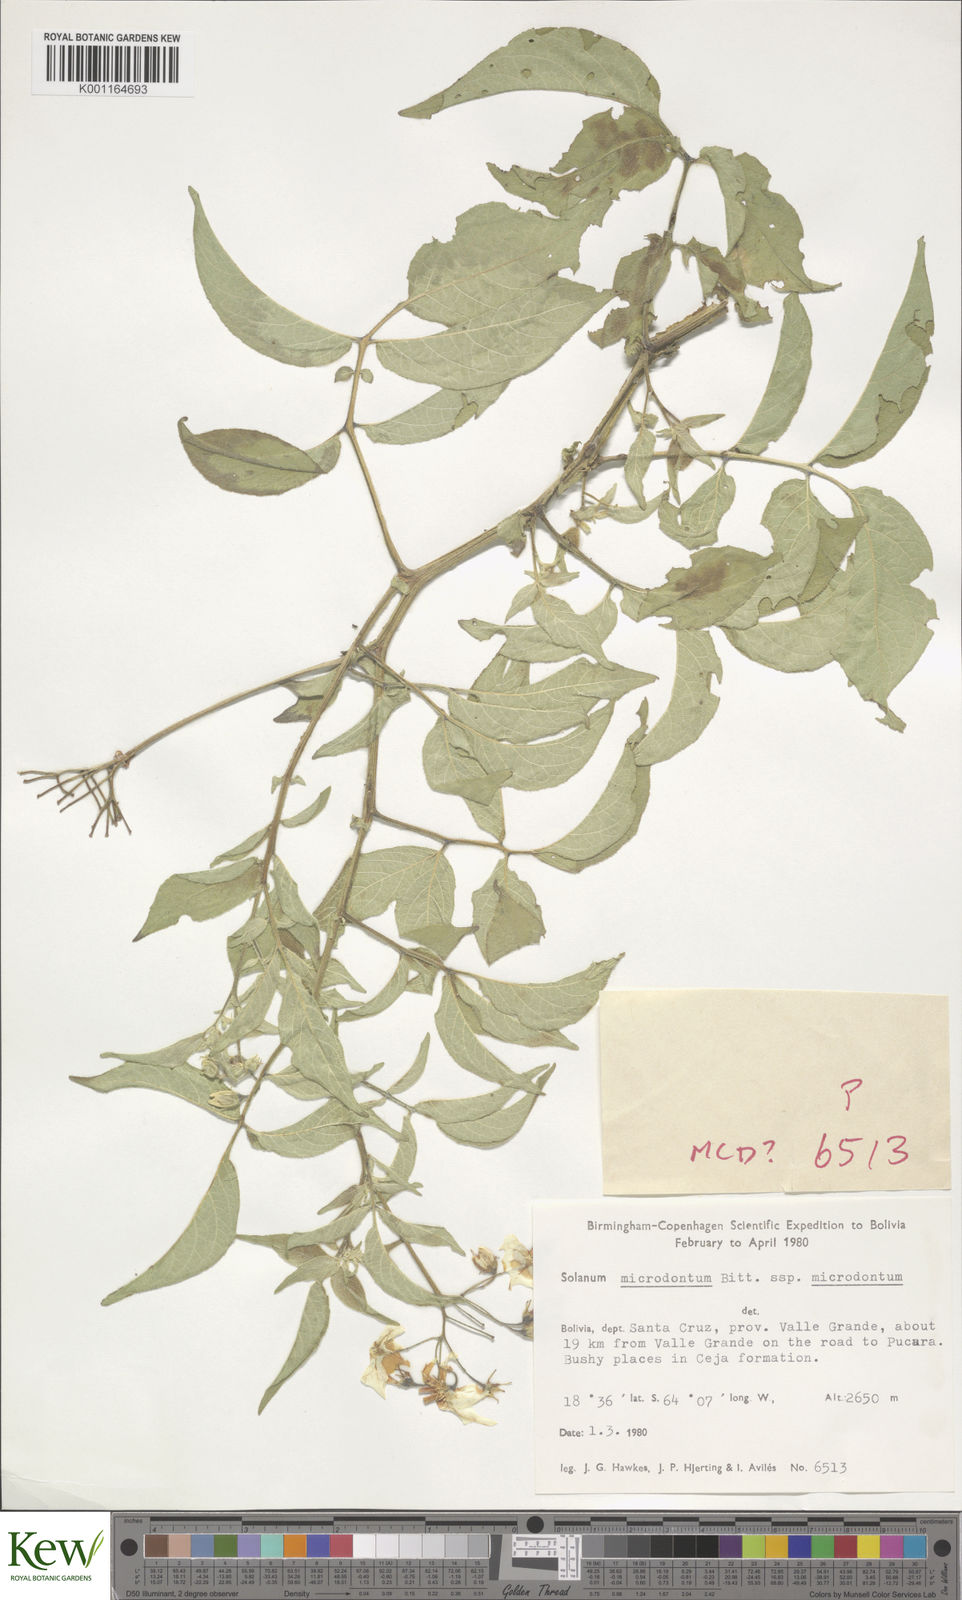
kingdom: Plantae
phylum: Tracheophyta
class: Magnoliopsida
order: Solanales
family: Solanaceae
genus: Solanum
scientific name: Solanum microdontum
